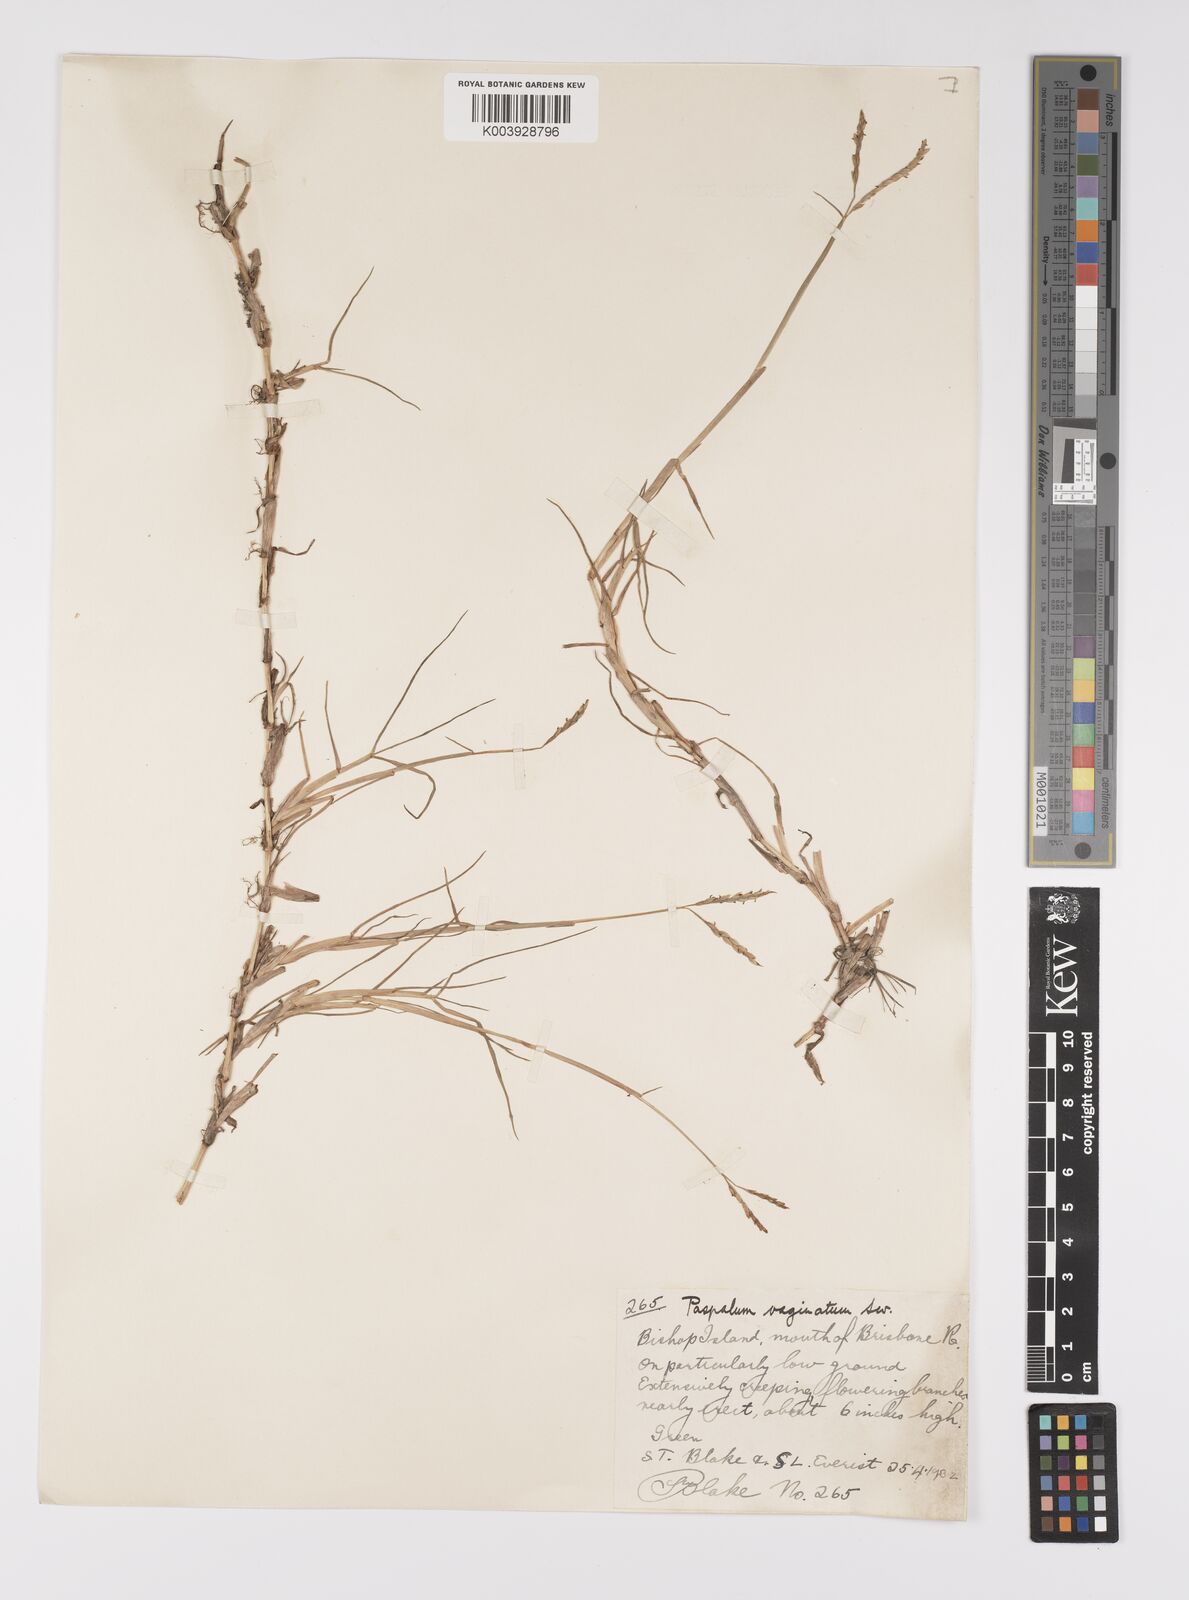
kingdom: Plantae
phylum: Tracheophyta
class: Liliopsida
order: Poales
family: Poaceae
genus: Paspalum
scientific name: Paspalum vaginatum
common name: Seashore paspalum
